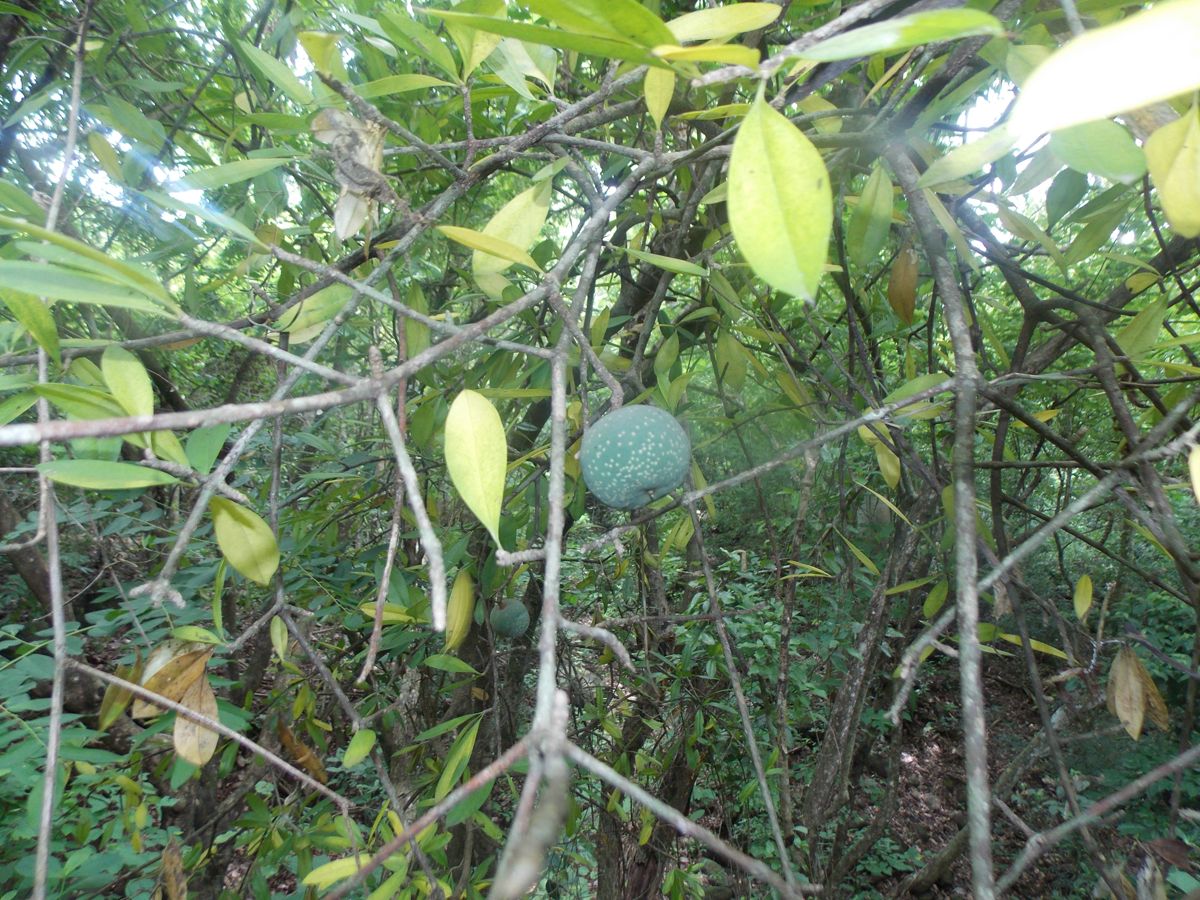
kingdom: Plantae
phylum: Tracheophyta
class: Magnoliopsida
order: Ericales
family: Primulaceae
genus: Bonellia
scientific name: Bonellia macrocarpa
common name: Primrose
